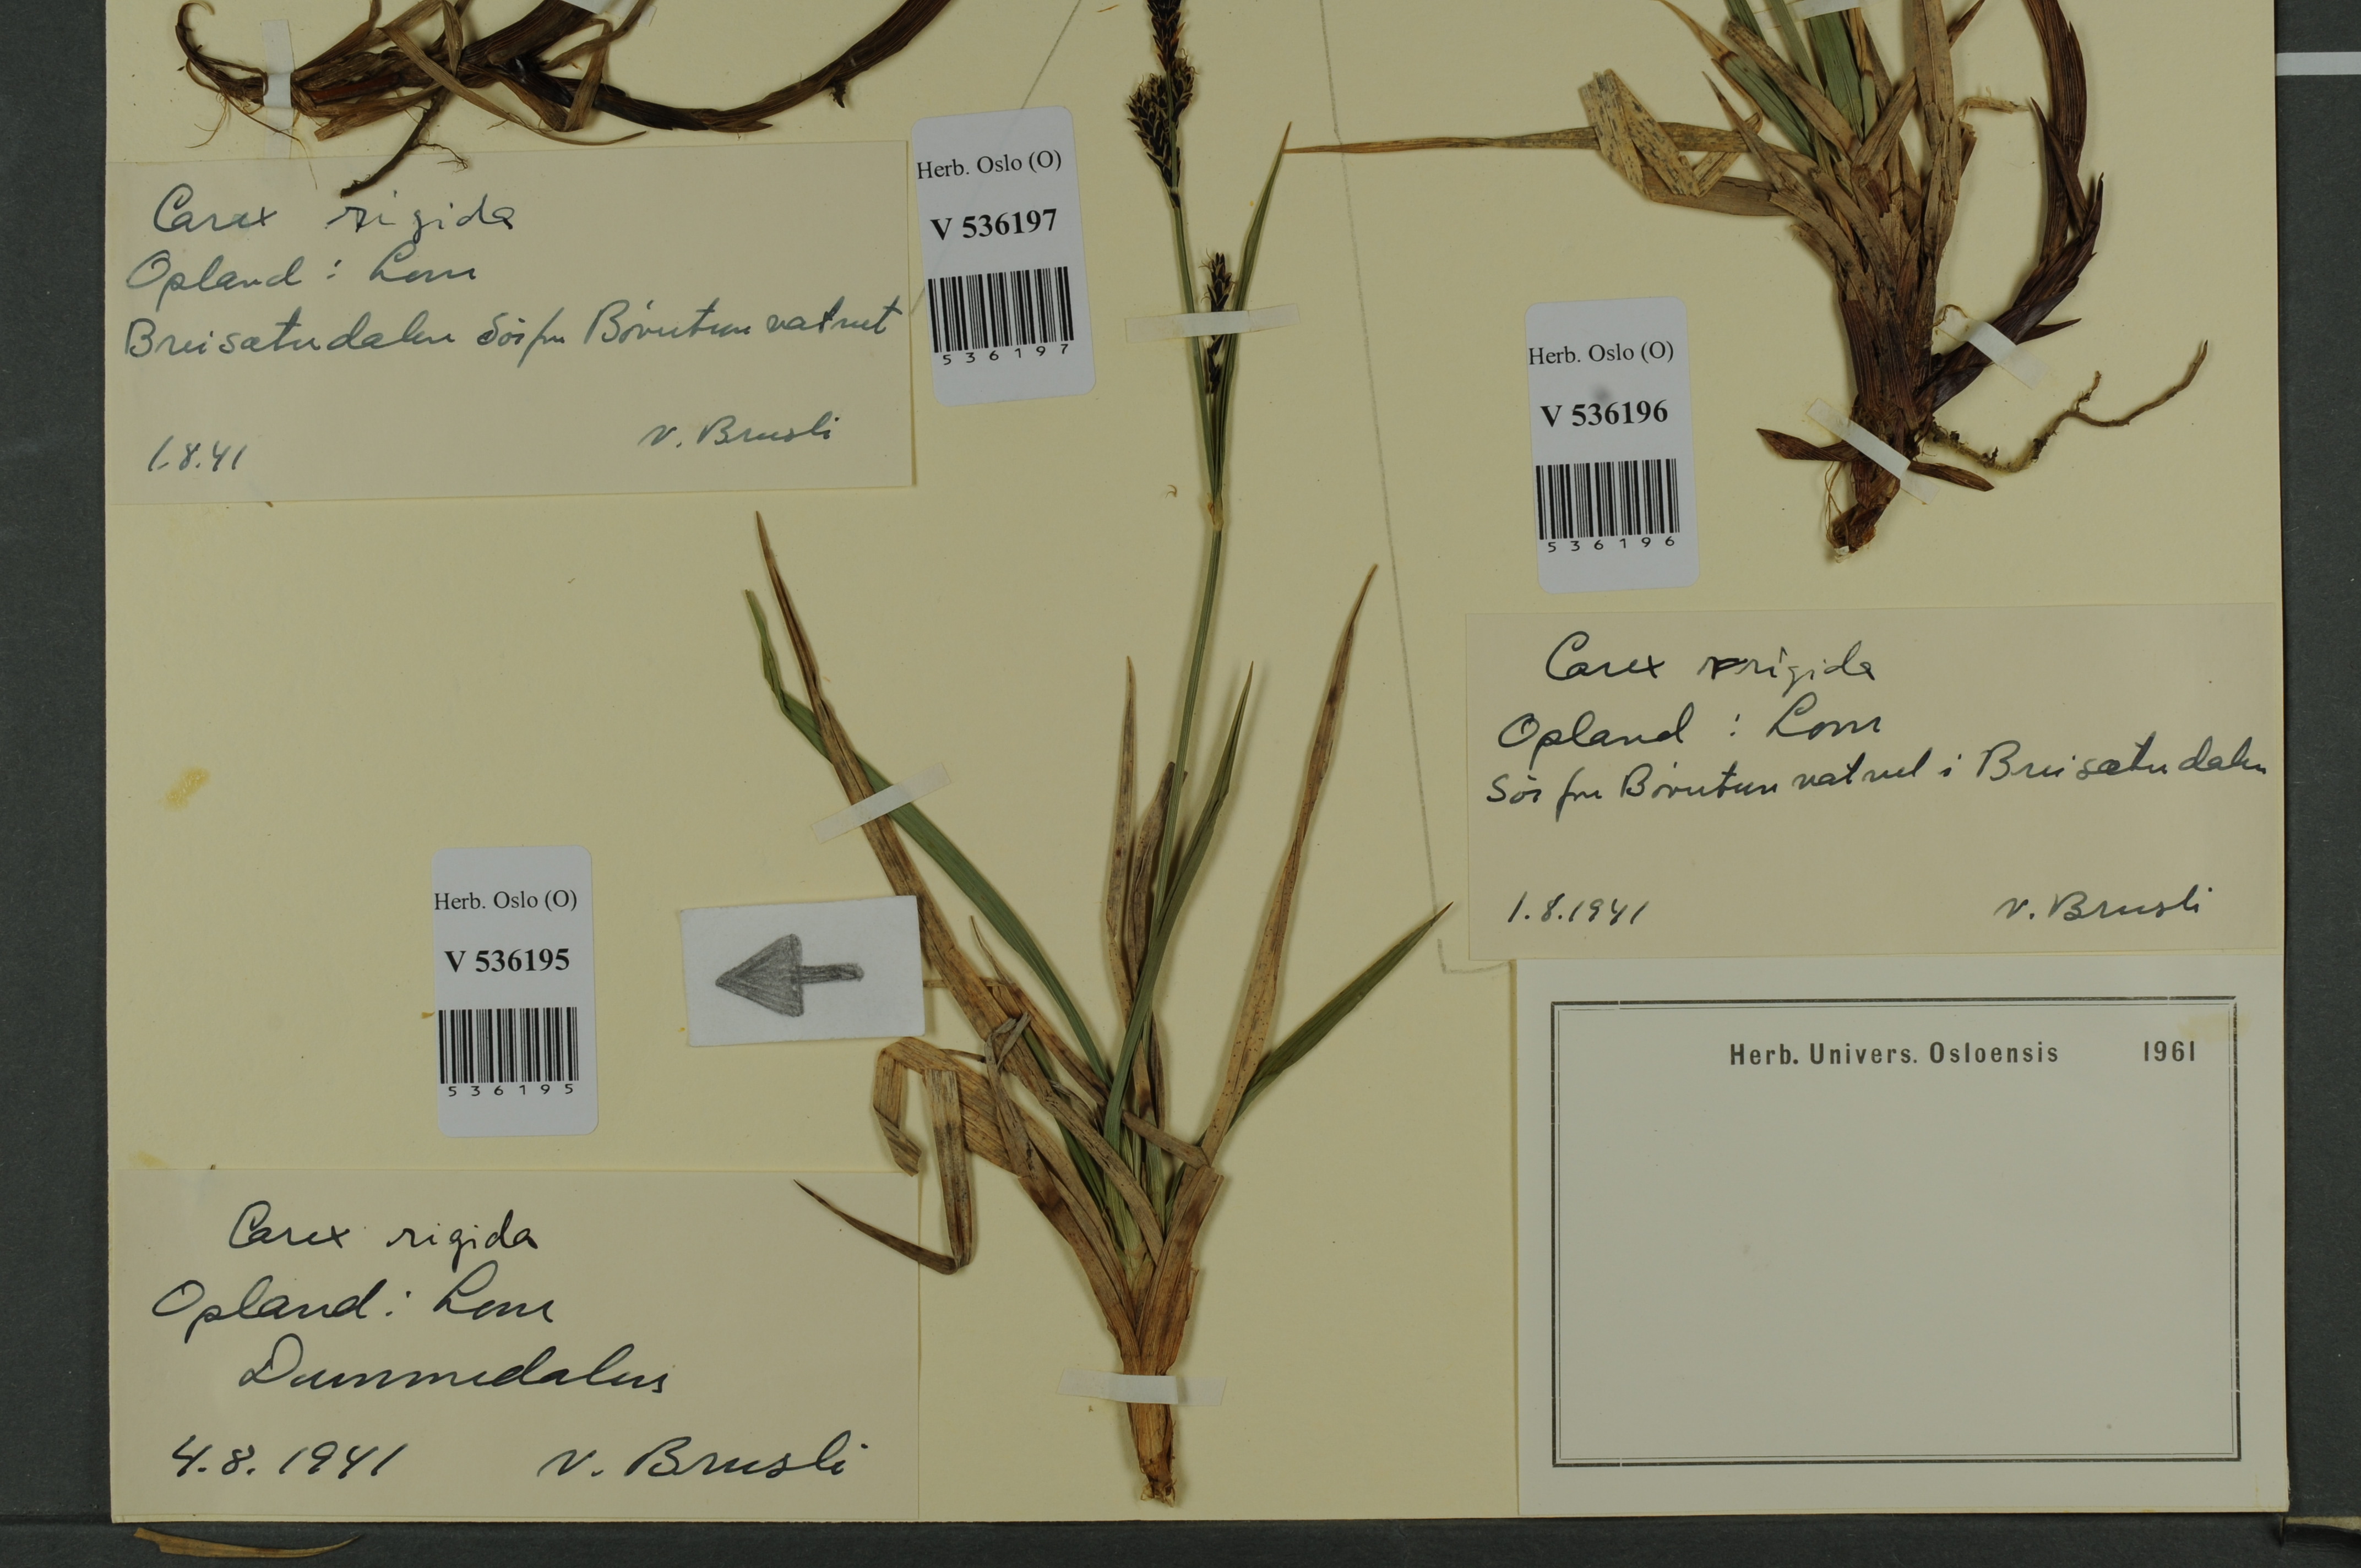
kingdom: Plantae
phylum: Tracheophyta
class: Liliopsida
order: Poales
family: Cyperaceae
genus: Carex
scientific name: Carex dacica
